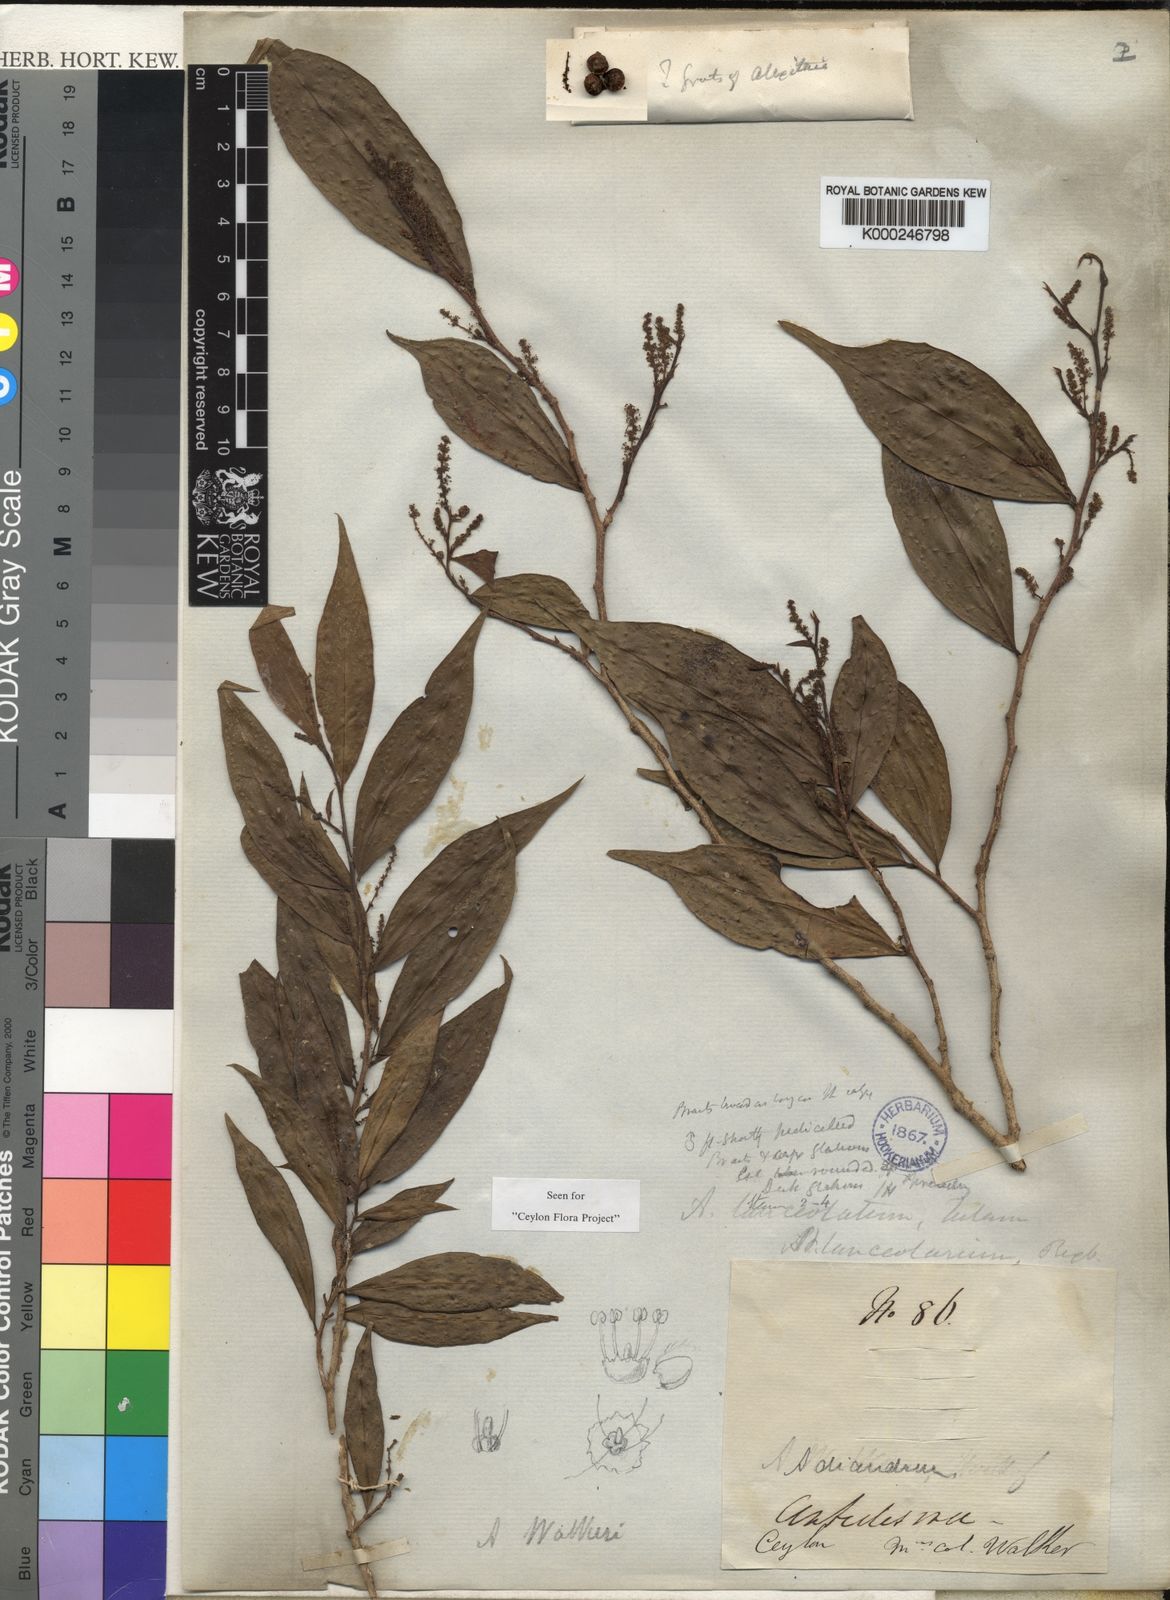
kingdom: Plantae
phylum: Tracheophyta
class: Magnoliopsida
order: Malpighiales
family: Phyllanthaceae
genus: Antidesma
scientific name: Antidesma comptum
